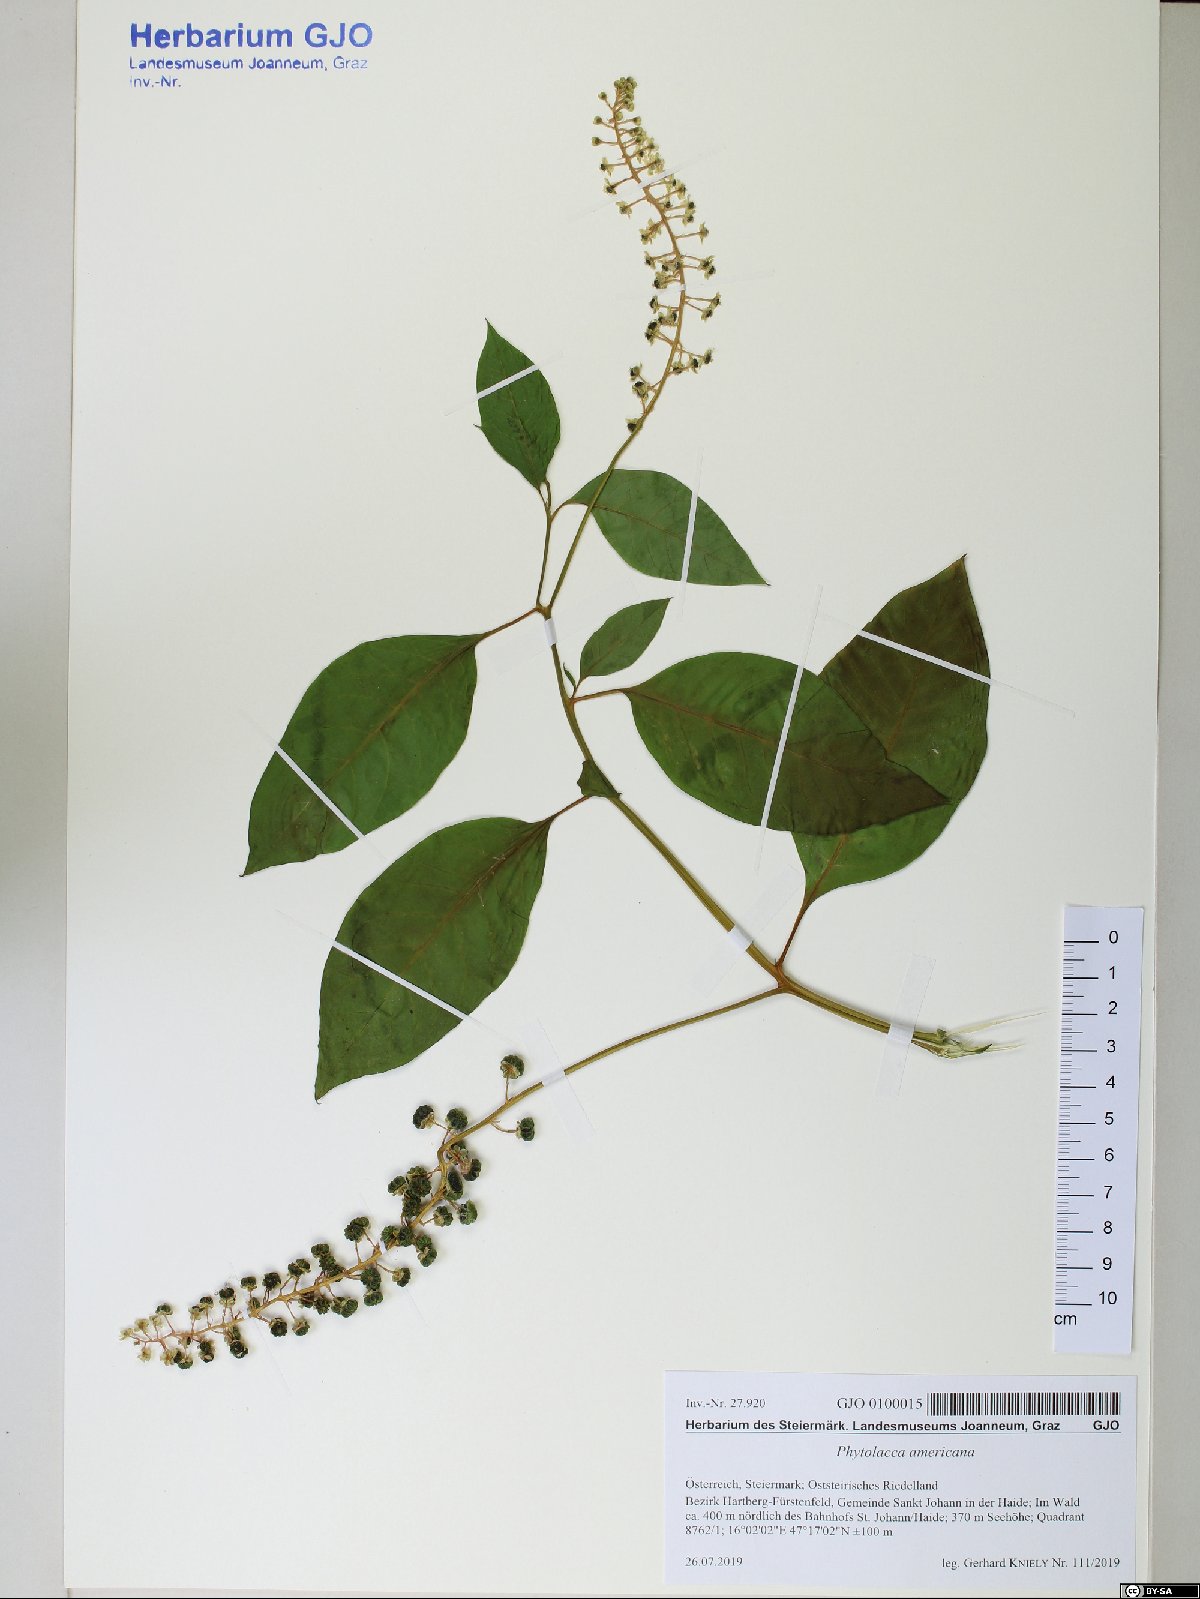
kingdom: Plantae
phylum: Tracheophyta
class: Magnoliopsida
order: Caryophyllales
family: Phytolaccaceae
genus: Phytolacca
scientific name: Phytolacca americana
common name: American pokeweed
